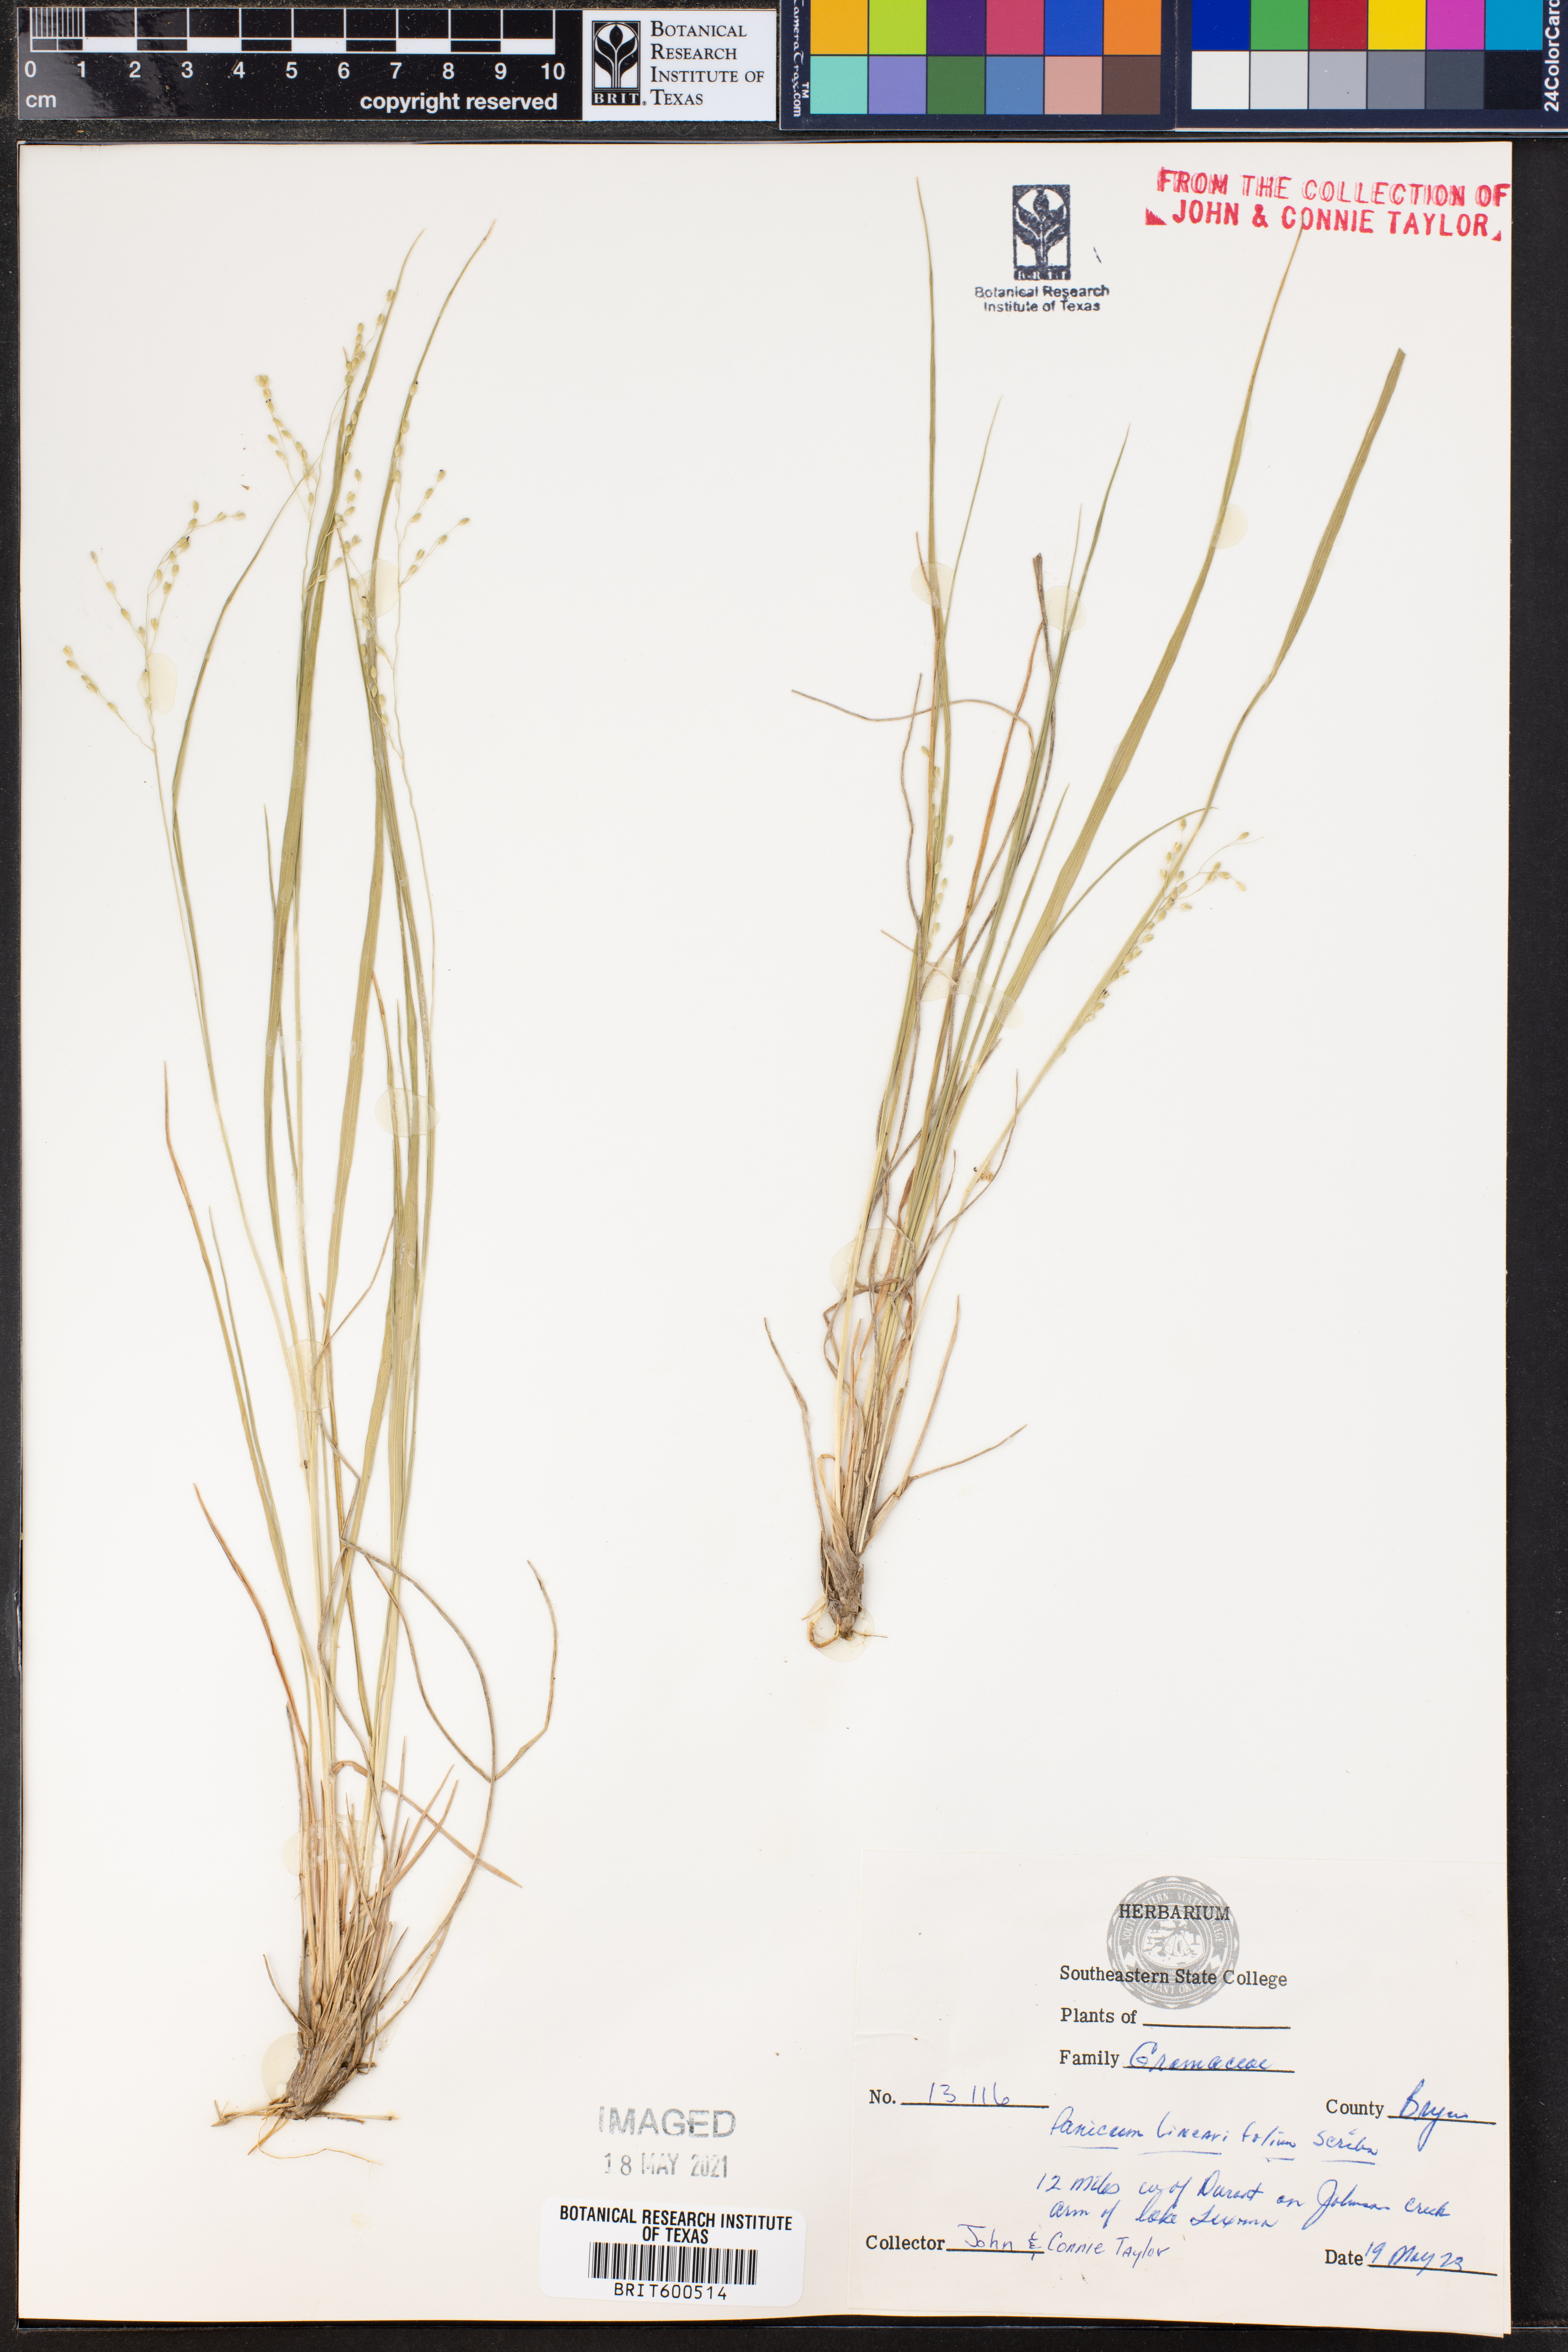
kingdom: Plantae
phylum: Tracheophyta
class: Liliopsida
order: Poales
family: Poaceae
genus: Dichanthelium
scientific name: Dichanthelium linearifolium
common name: Linear-leaved panicgrass
